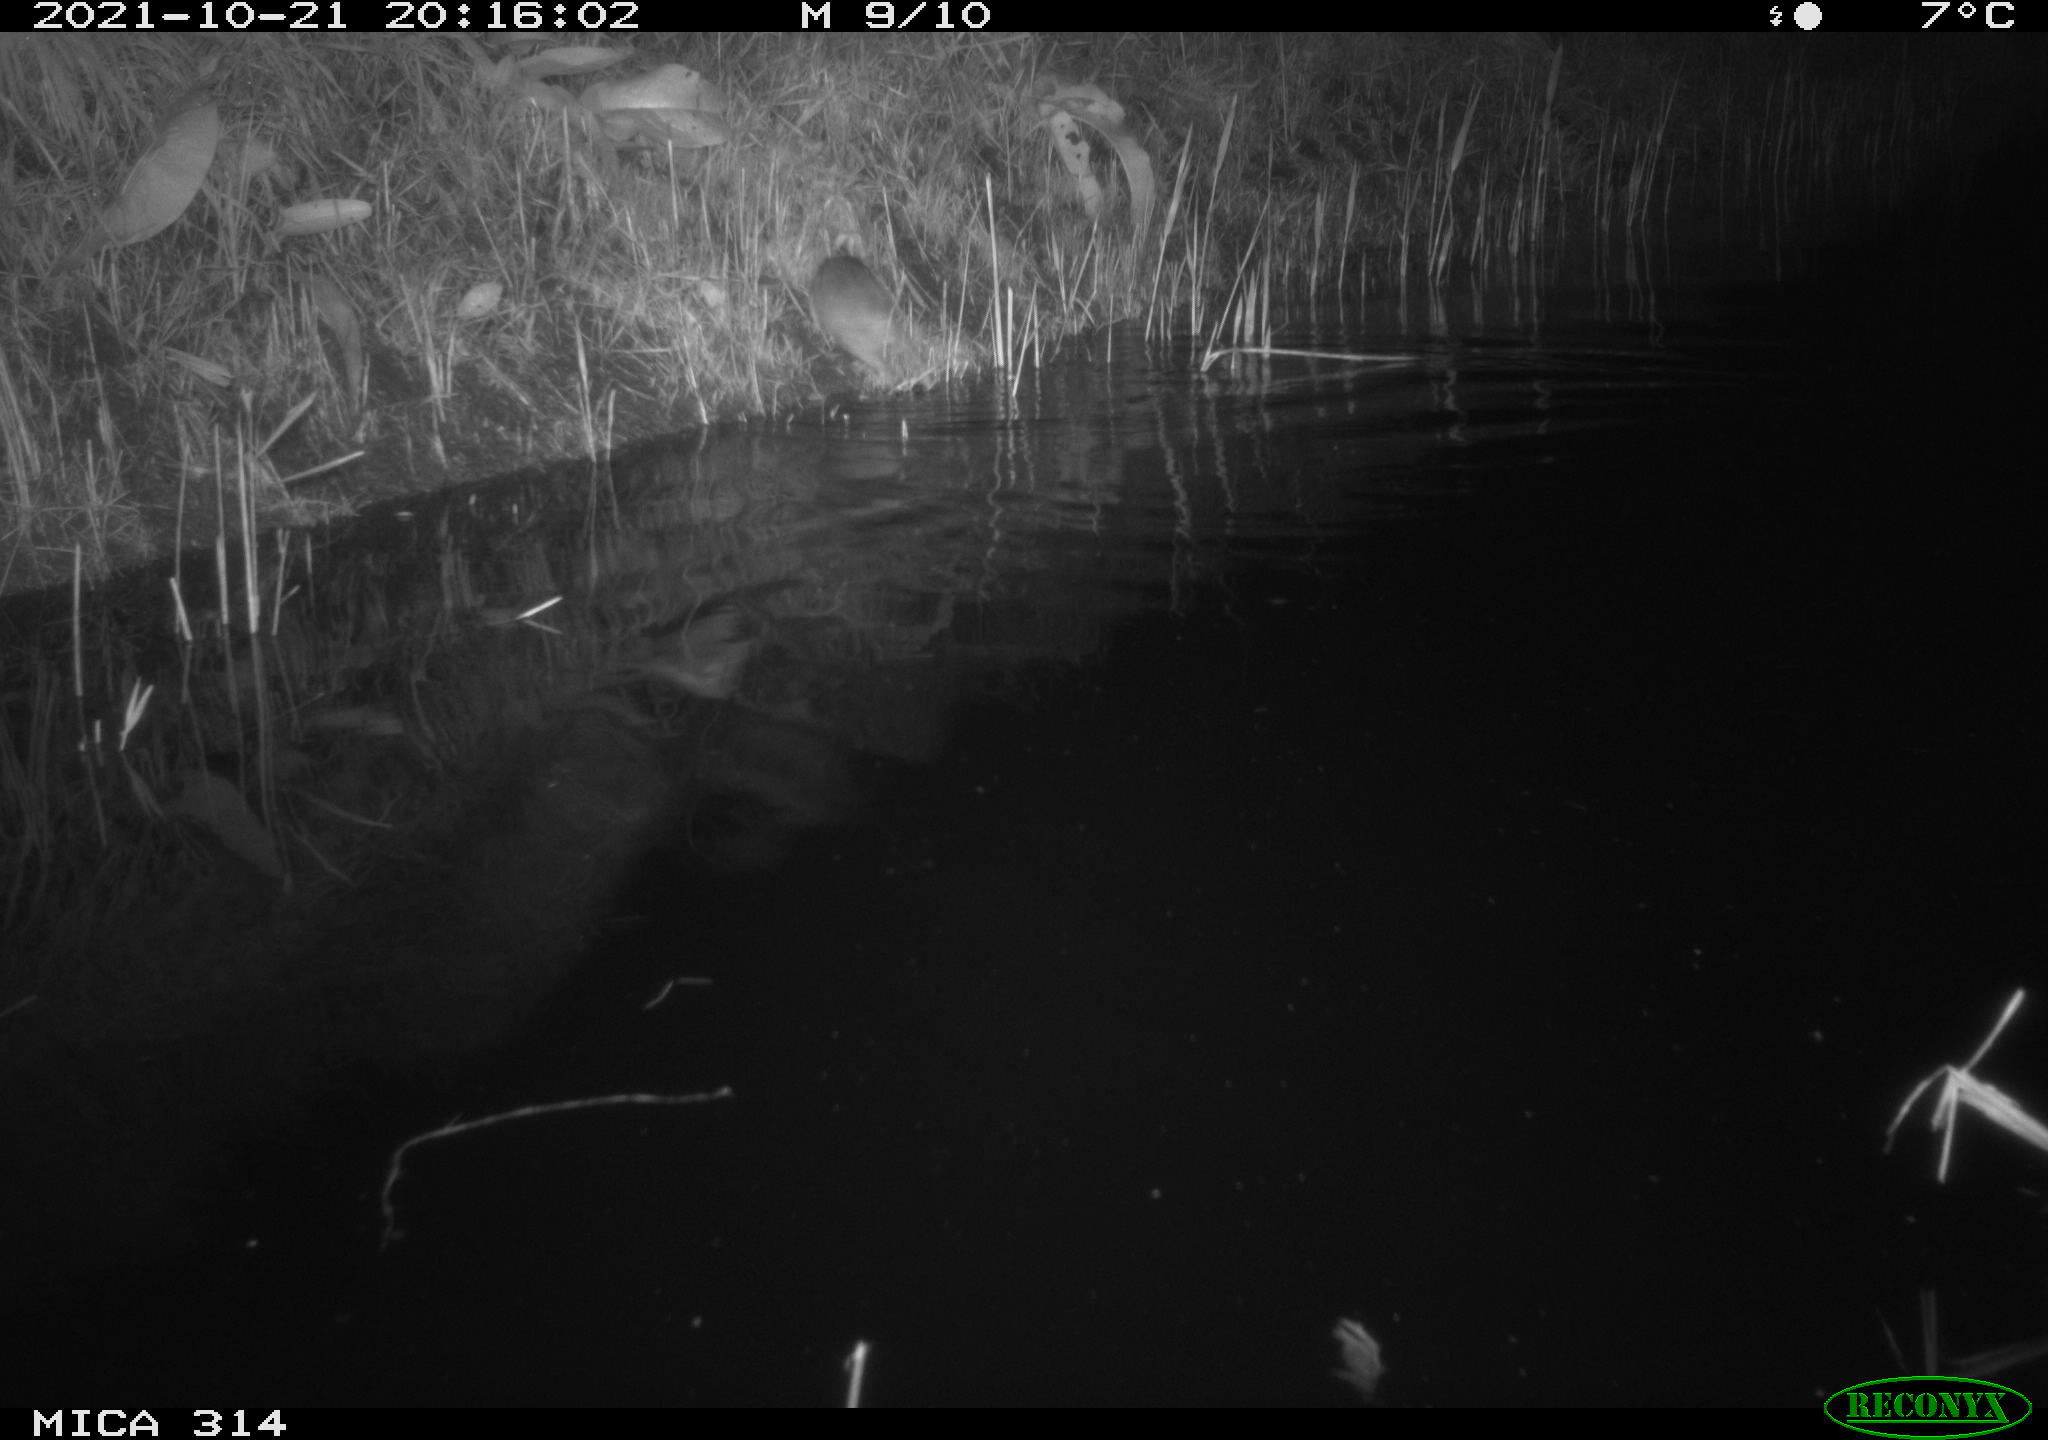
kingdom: Animalia
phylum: Chordata
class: Mammalia
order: Rodentia
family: Muridae
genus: Rattus
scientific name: Rattus norvegicus
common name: Brown rat
